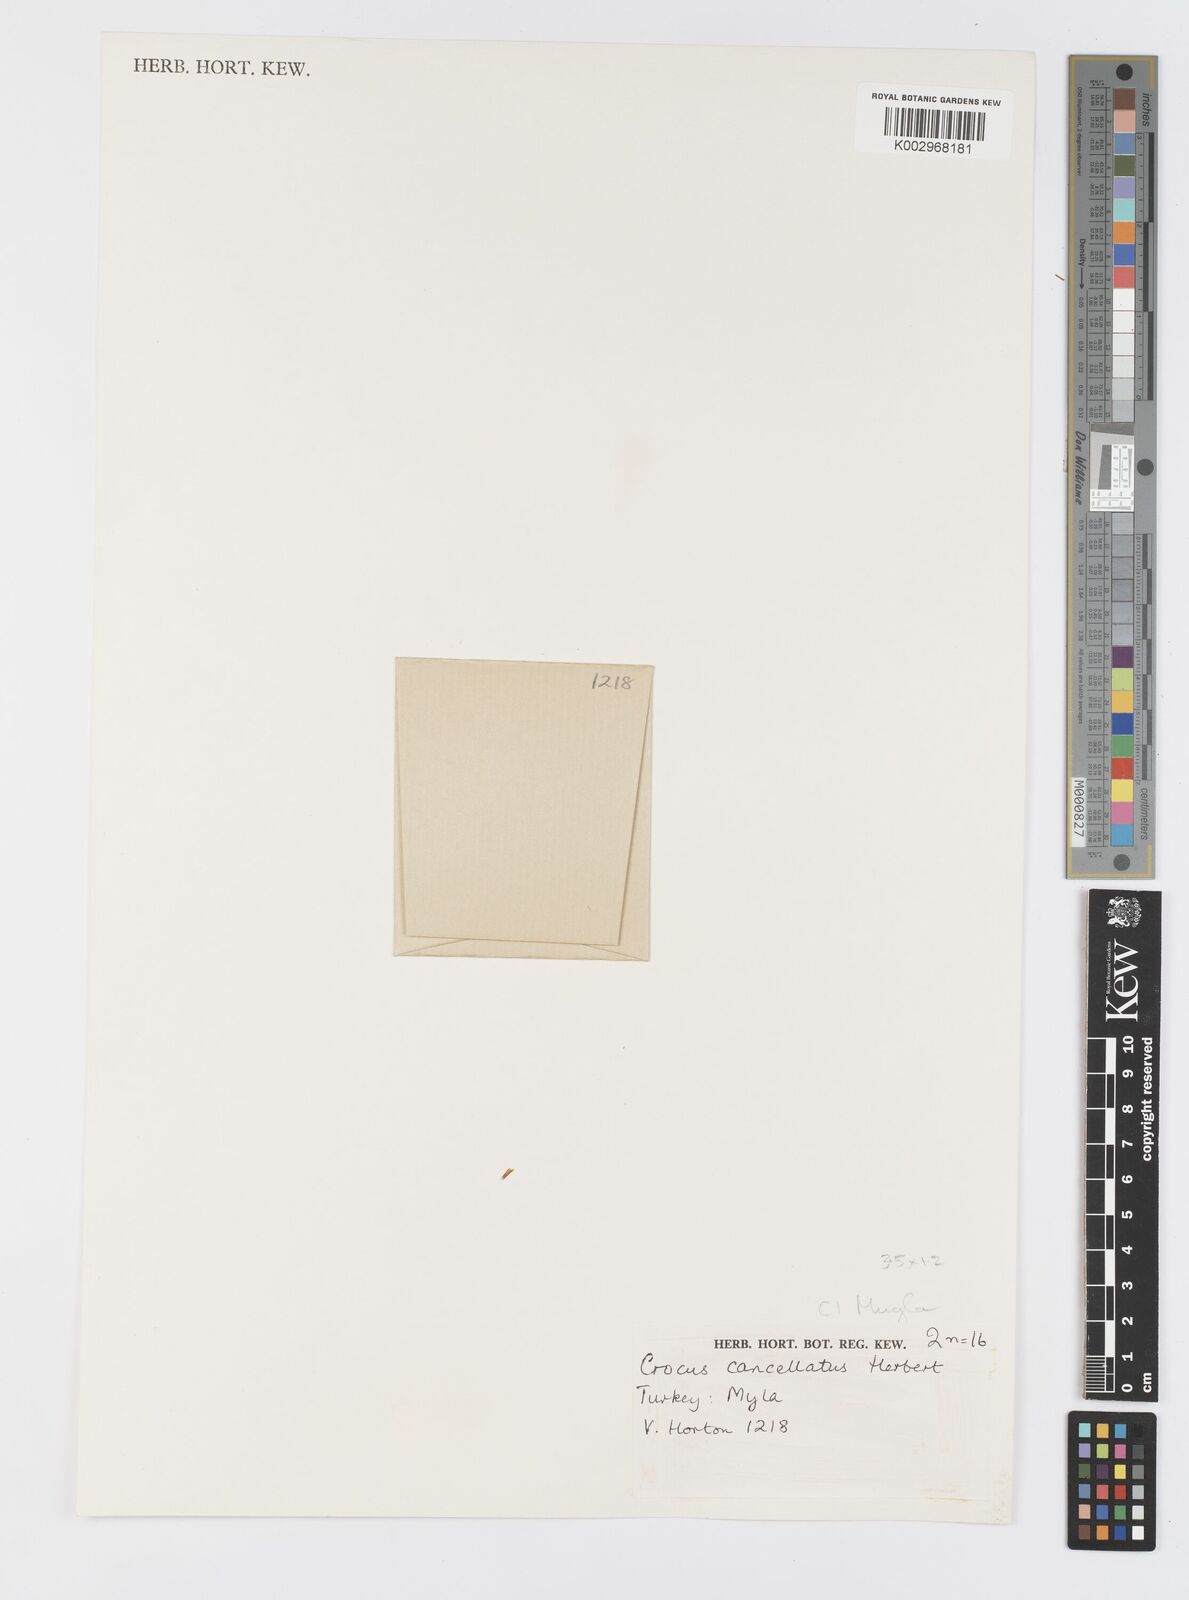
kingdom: Plantae
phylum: Tracheophyta
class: Liliopsida
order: Asparagales
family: Iridaceae
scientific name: Iridaceae
